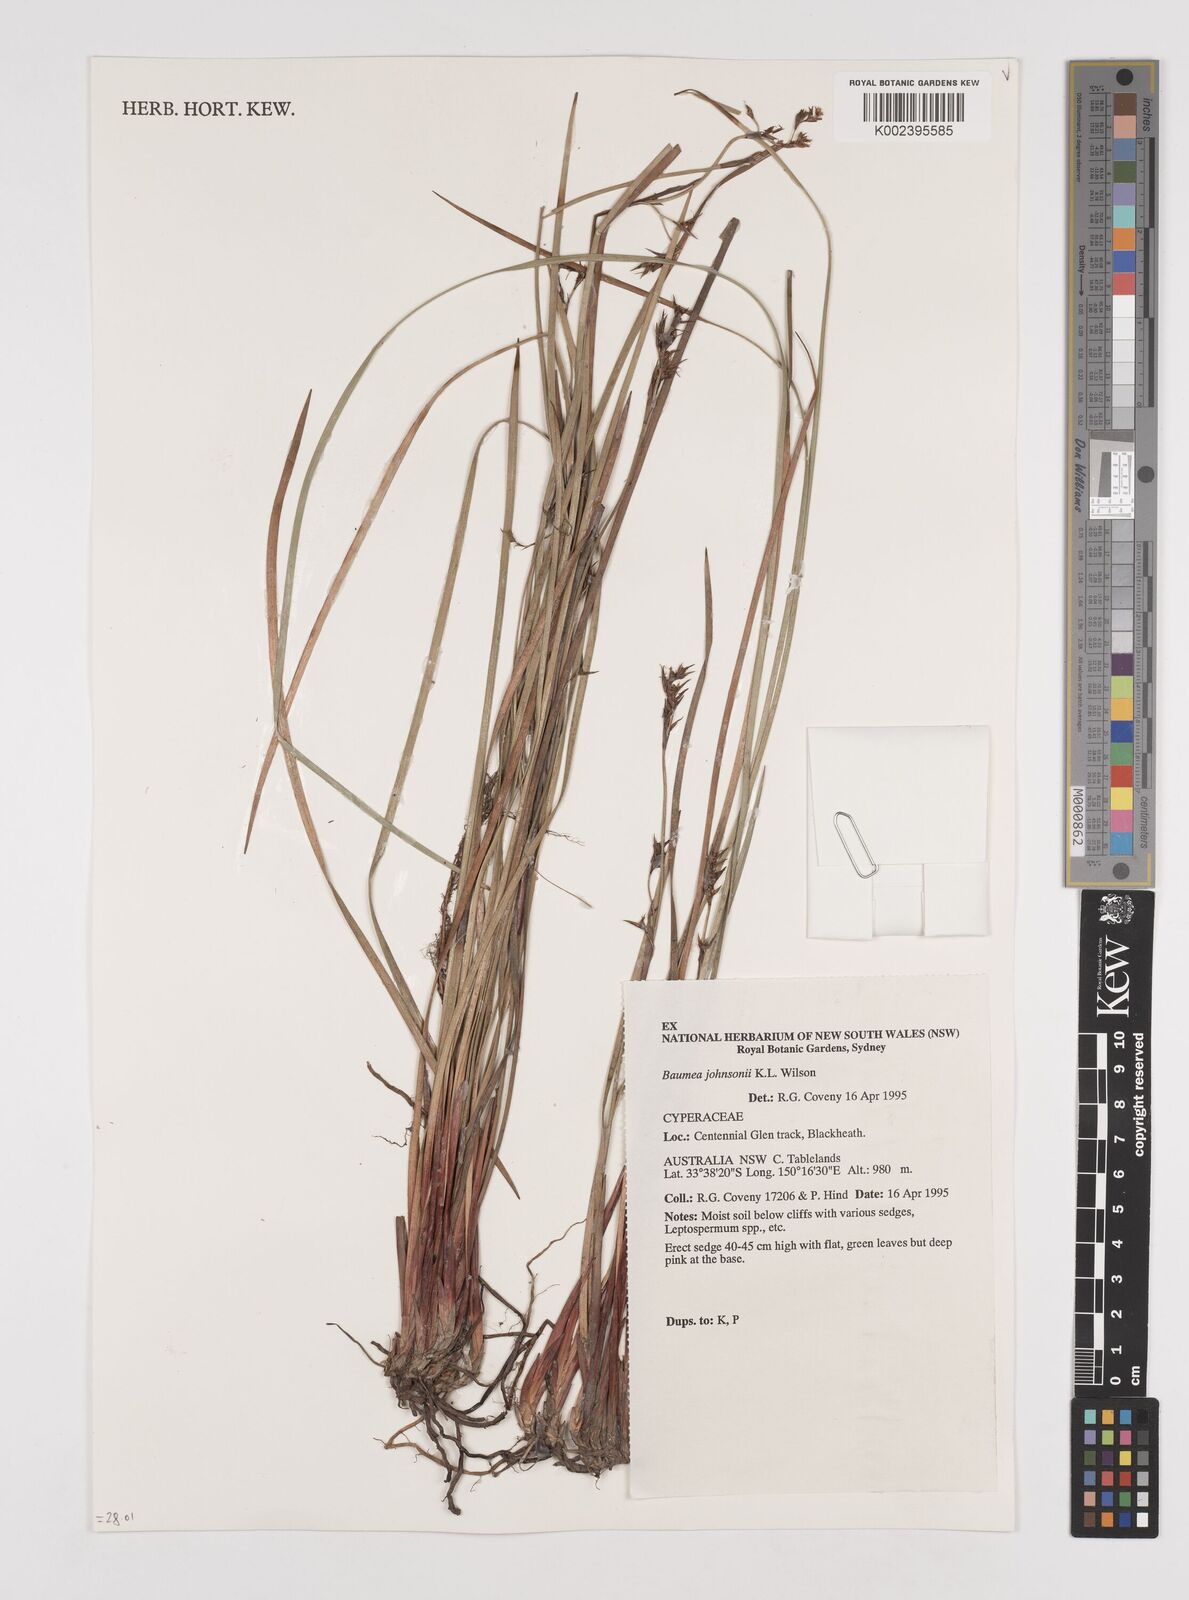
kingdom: Plantae
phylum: Tracheophyta
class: Liliopsida
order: Poales
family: Cyperaceae
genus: Machaerina
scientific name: Machaerina johnsonii
